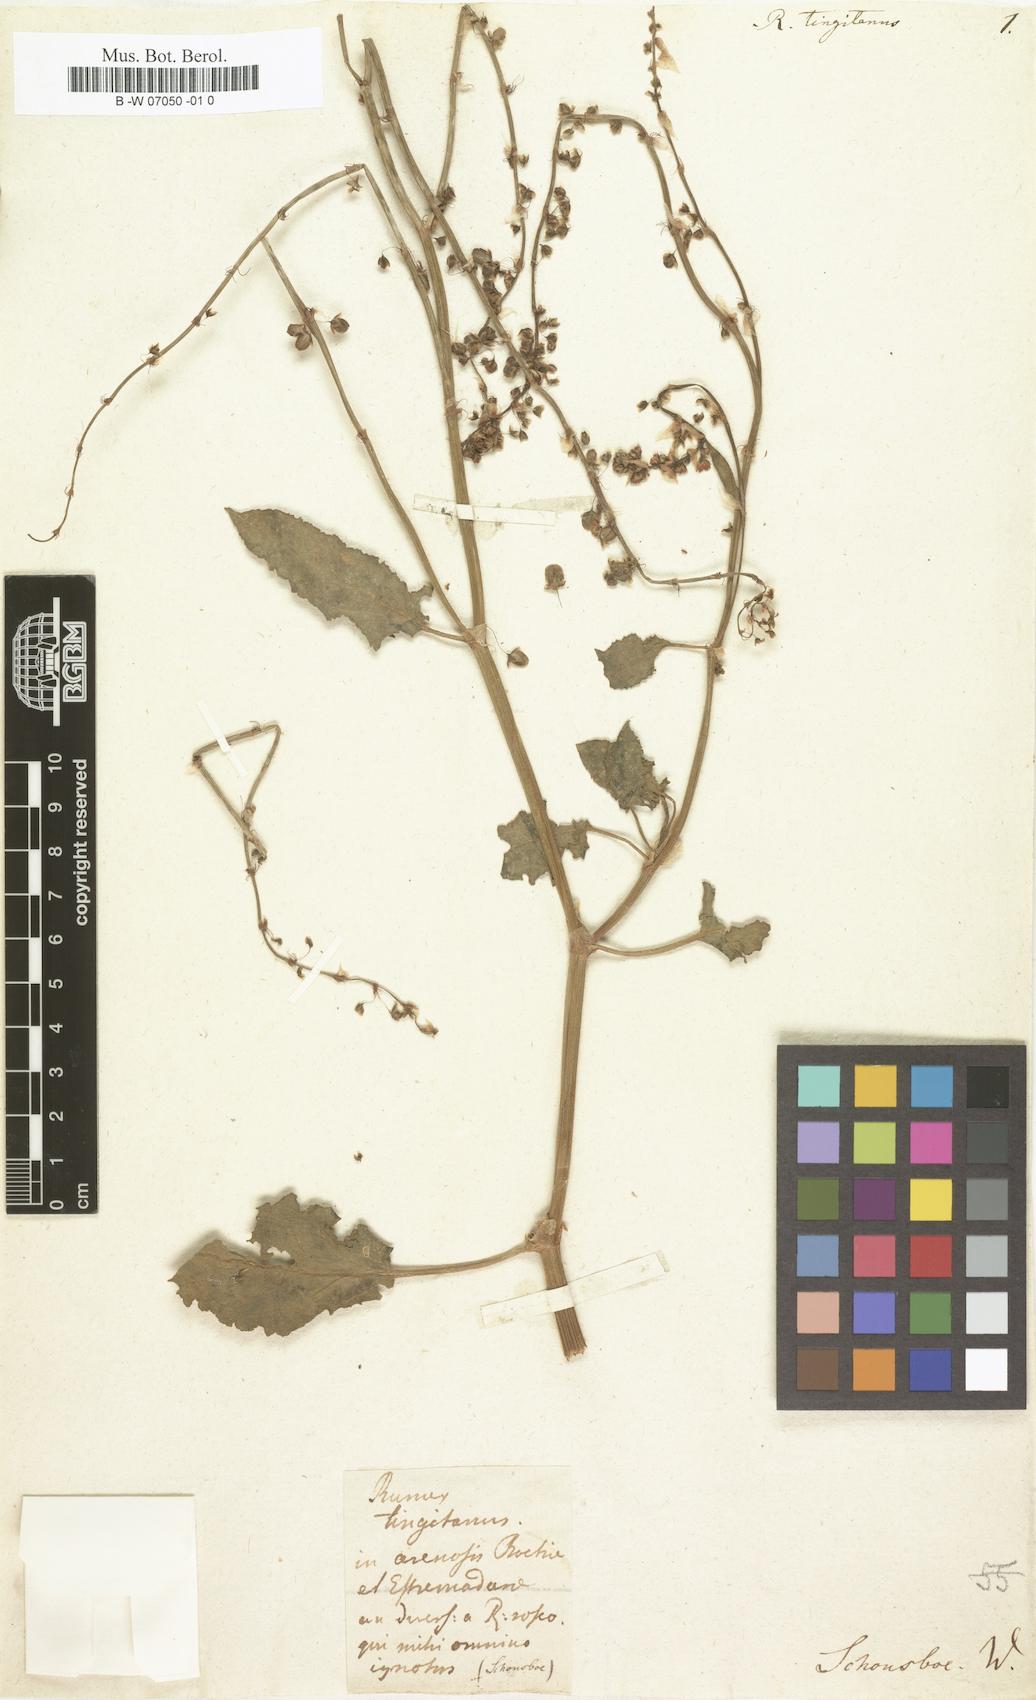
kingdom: Plantae
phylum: Tracheophyta
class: Magnoliopsida
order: Caryophyllales
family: Polygonaceae
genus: Rumex
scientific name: Rumex
